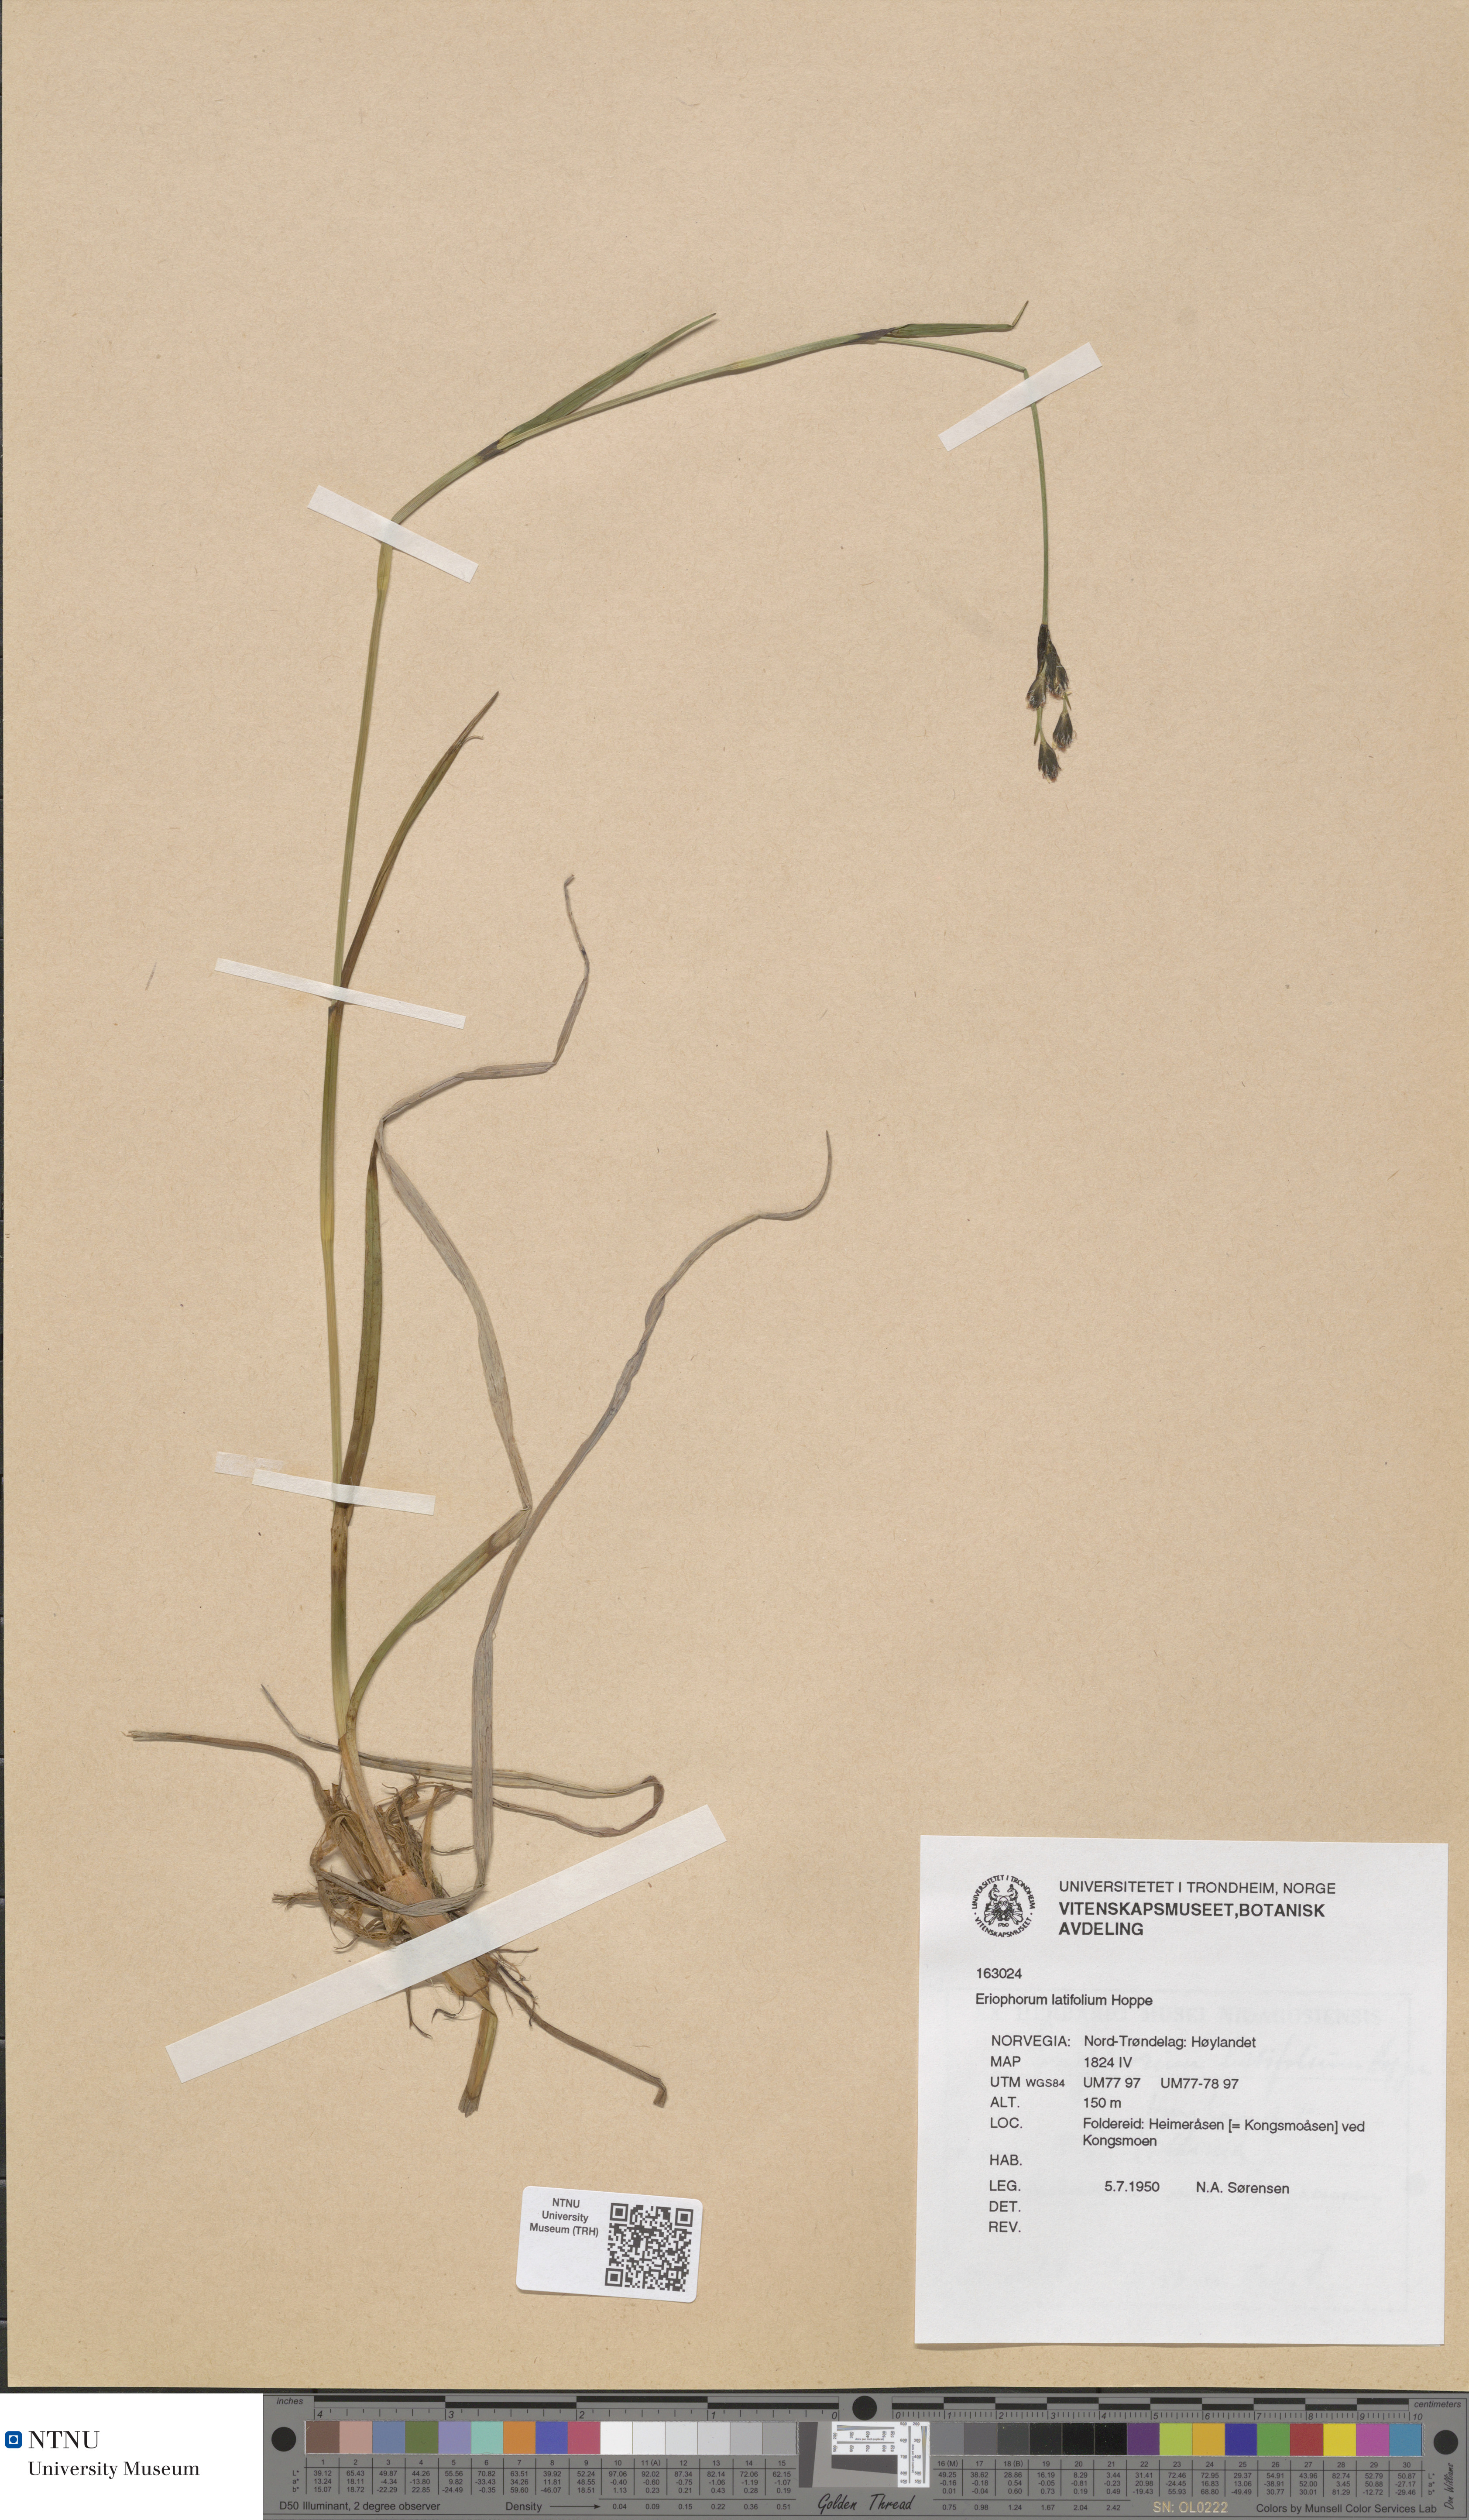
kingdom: Plantae
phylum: Tracheophyta
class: Liliopsida
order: Poales
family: Cyperaceae
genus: Eriophorum
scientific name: Eriophorum latifolium
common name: Broad-leaved cottongrass
